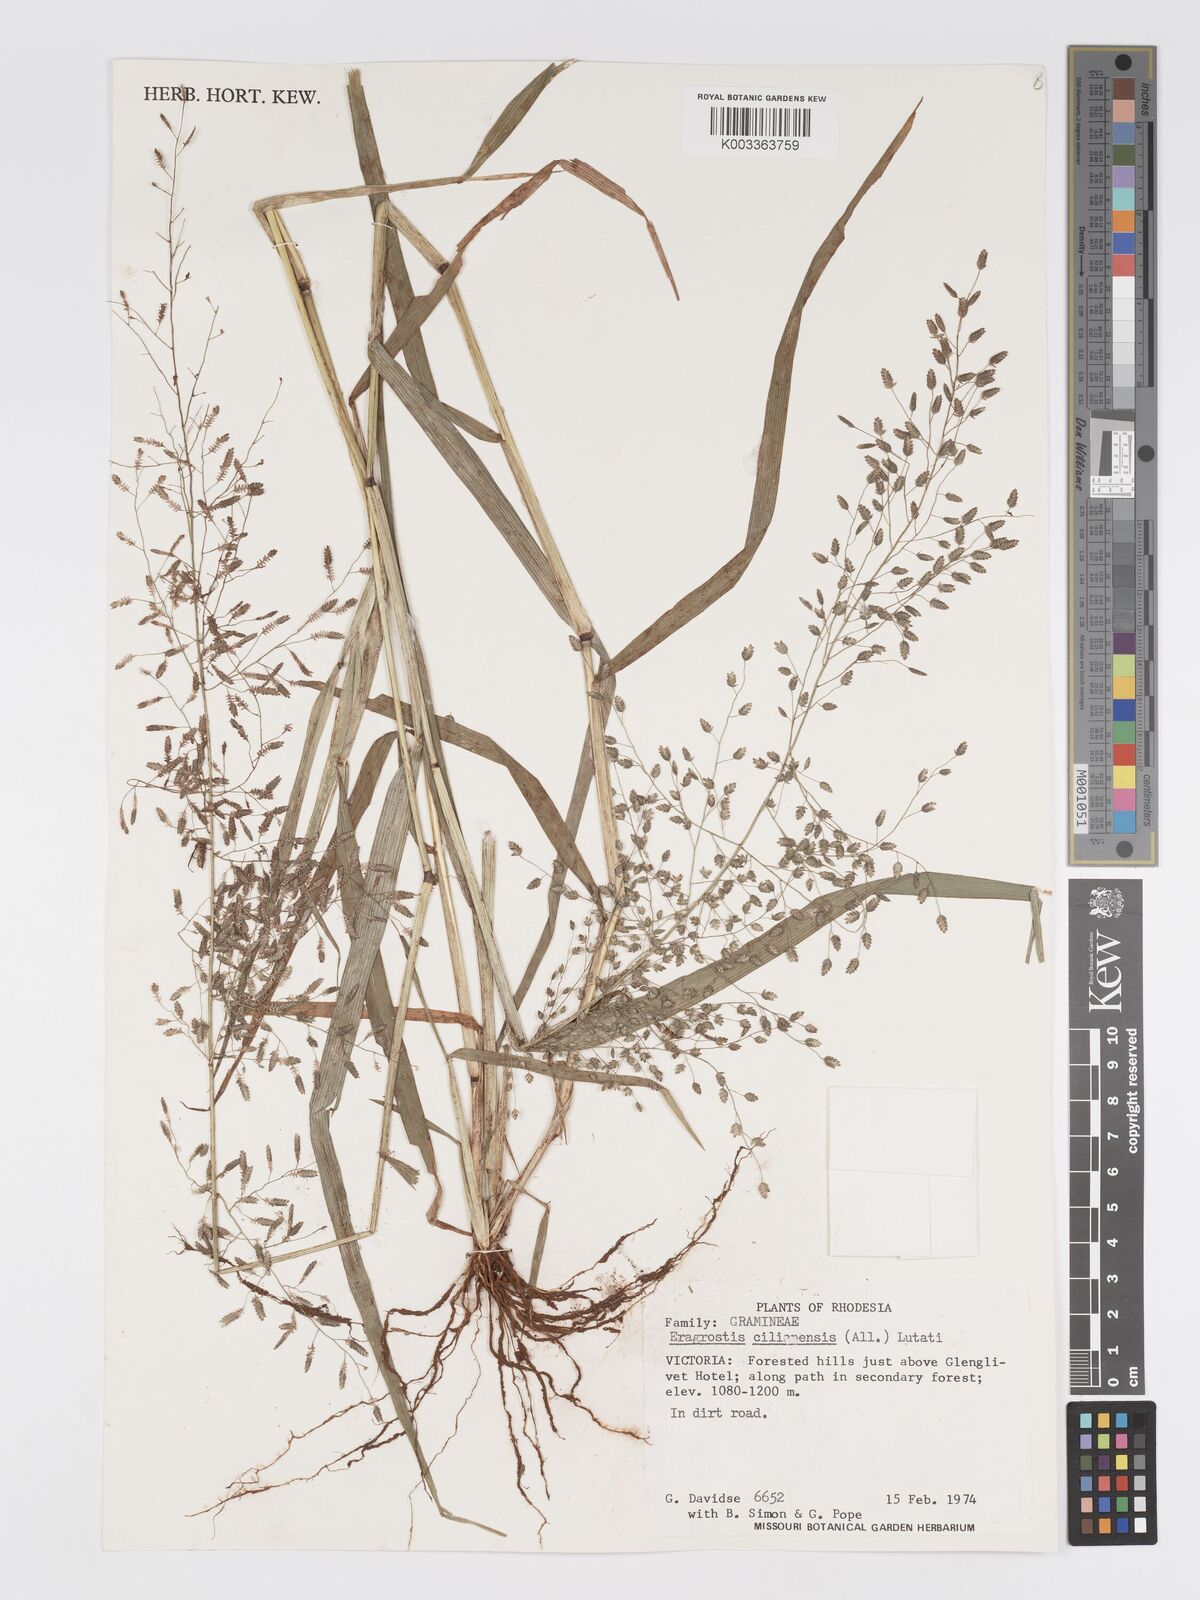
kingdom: Plantae
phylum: Tracheophyta
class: Liliopsida
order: Poales
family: Poaceae
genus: Eragrostis
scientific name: Eragrostis cilianensis
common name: Stinkgrass
